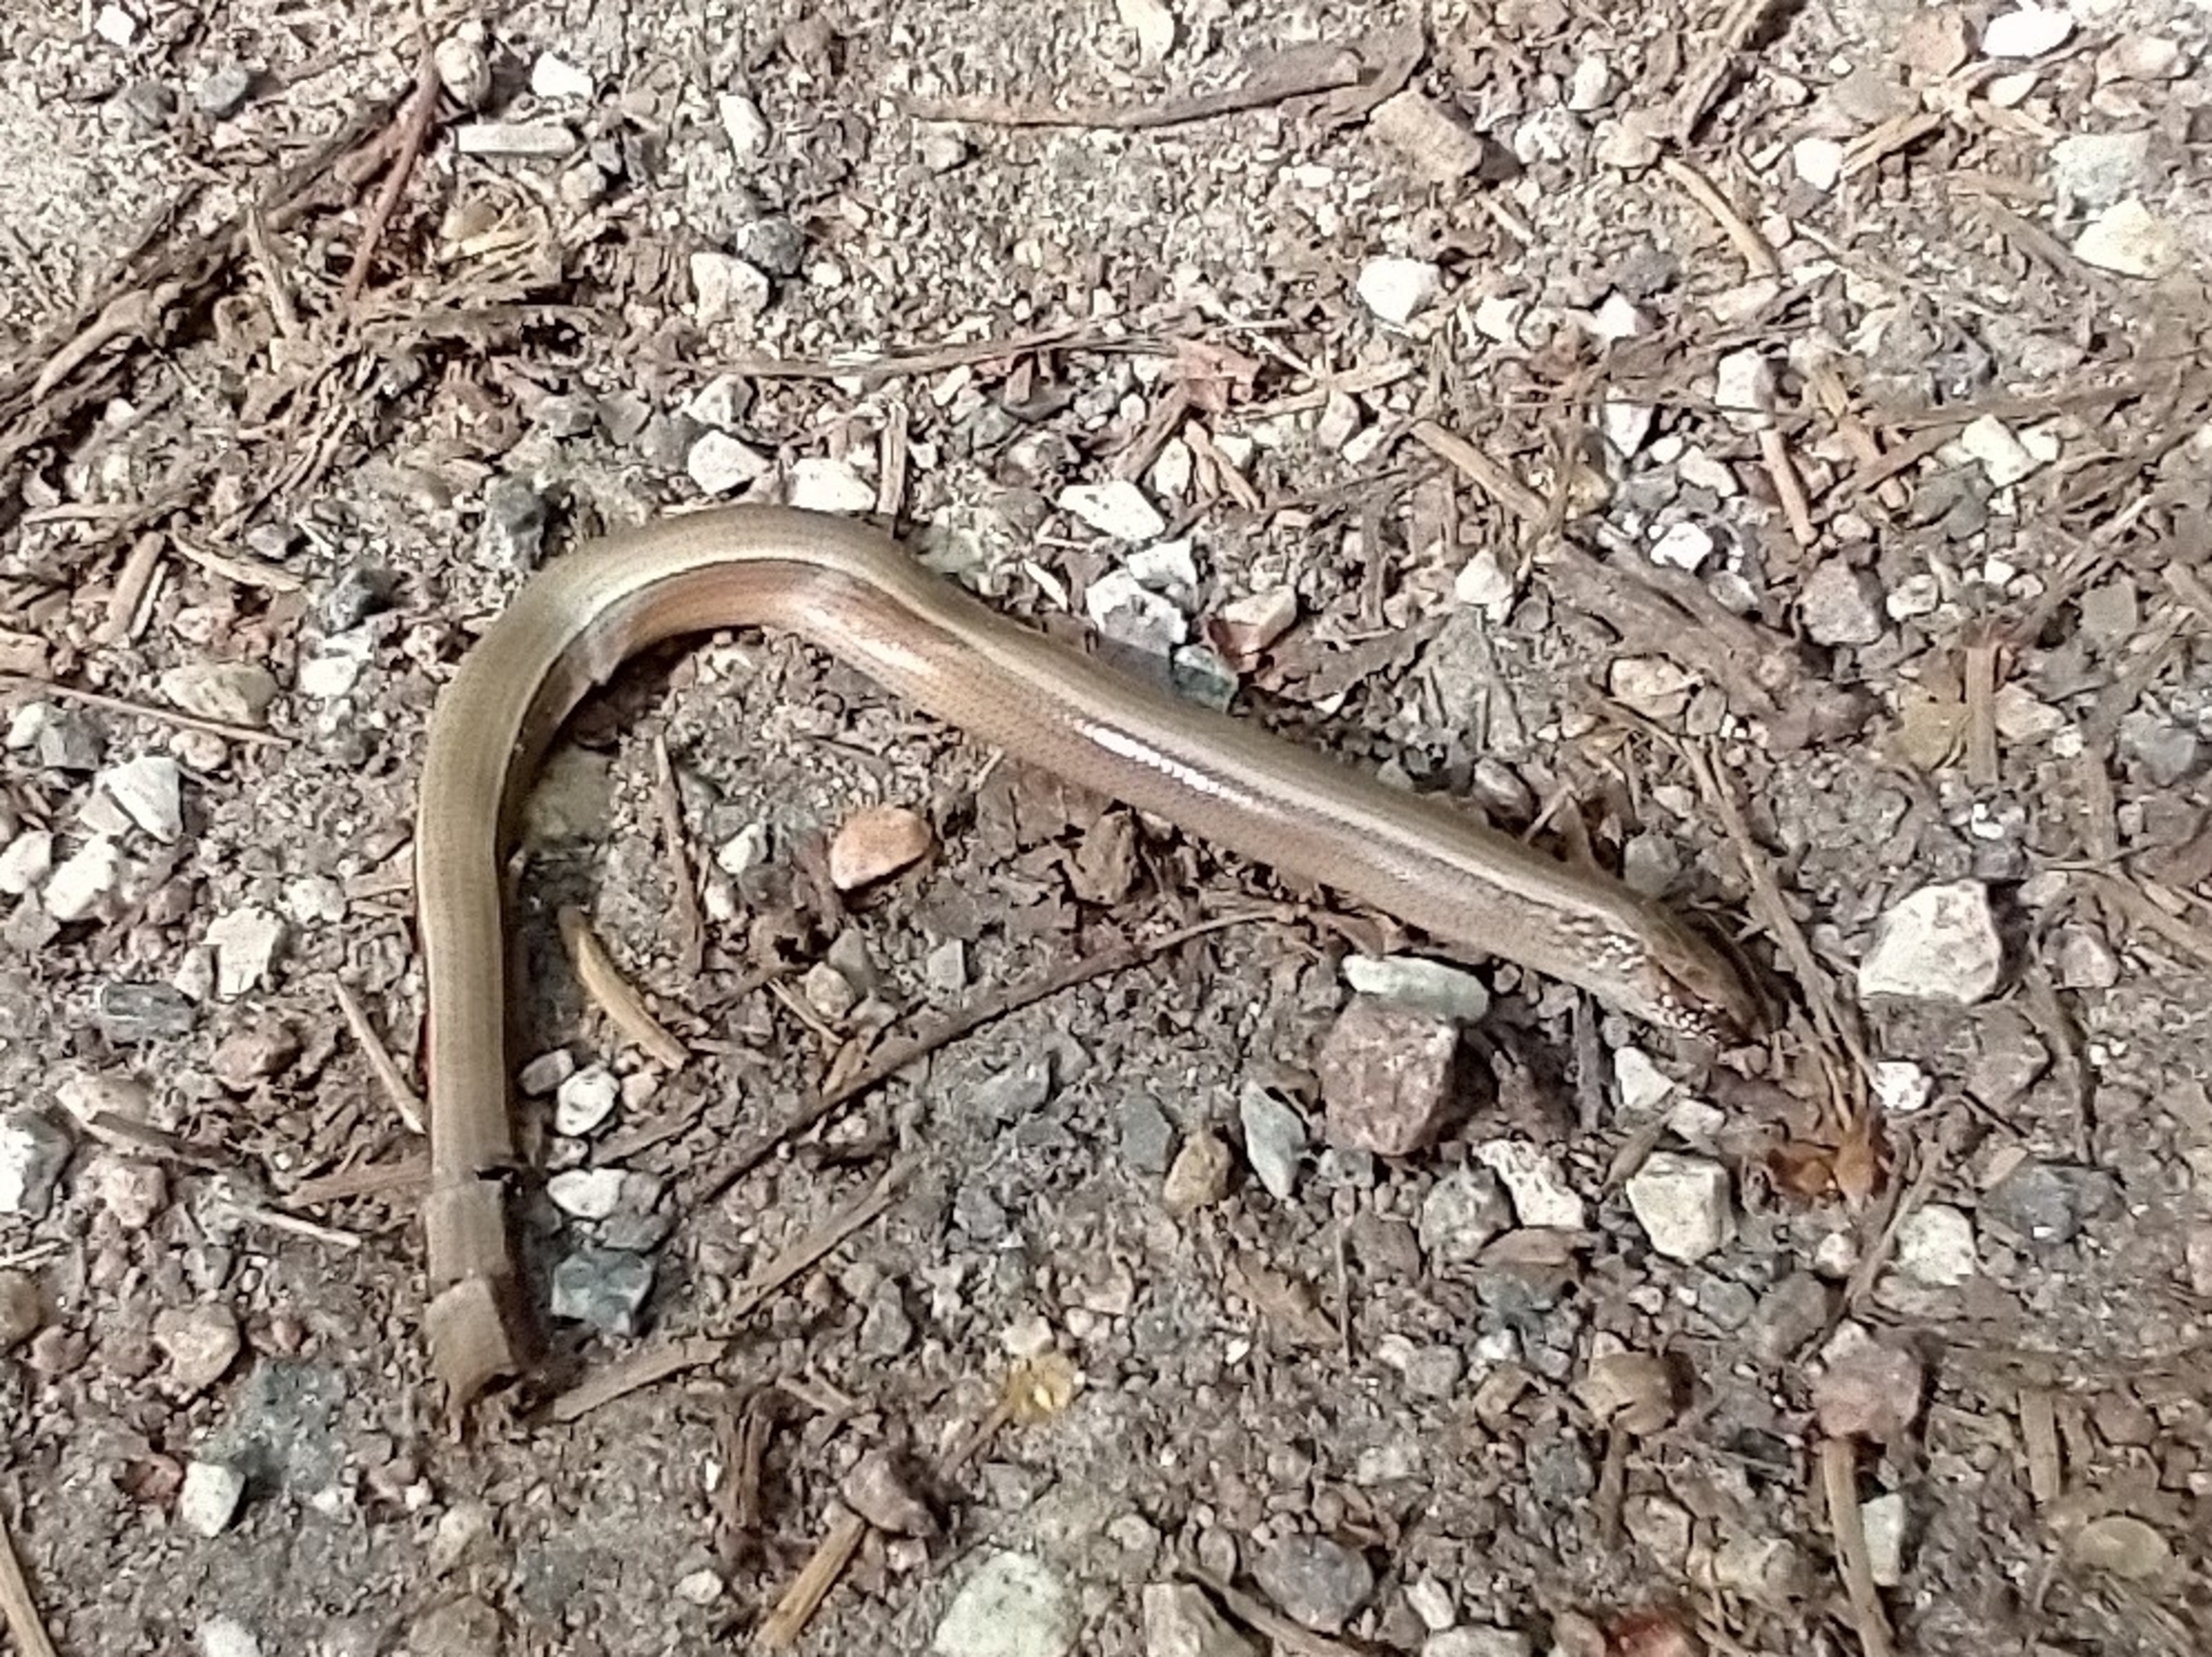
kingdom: Animalia
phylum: Chordata
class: Squamata
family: Anguidae
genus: Anguis
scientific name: Anguis fragilis
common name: Stålorm
